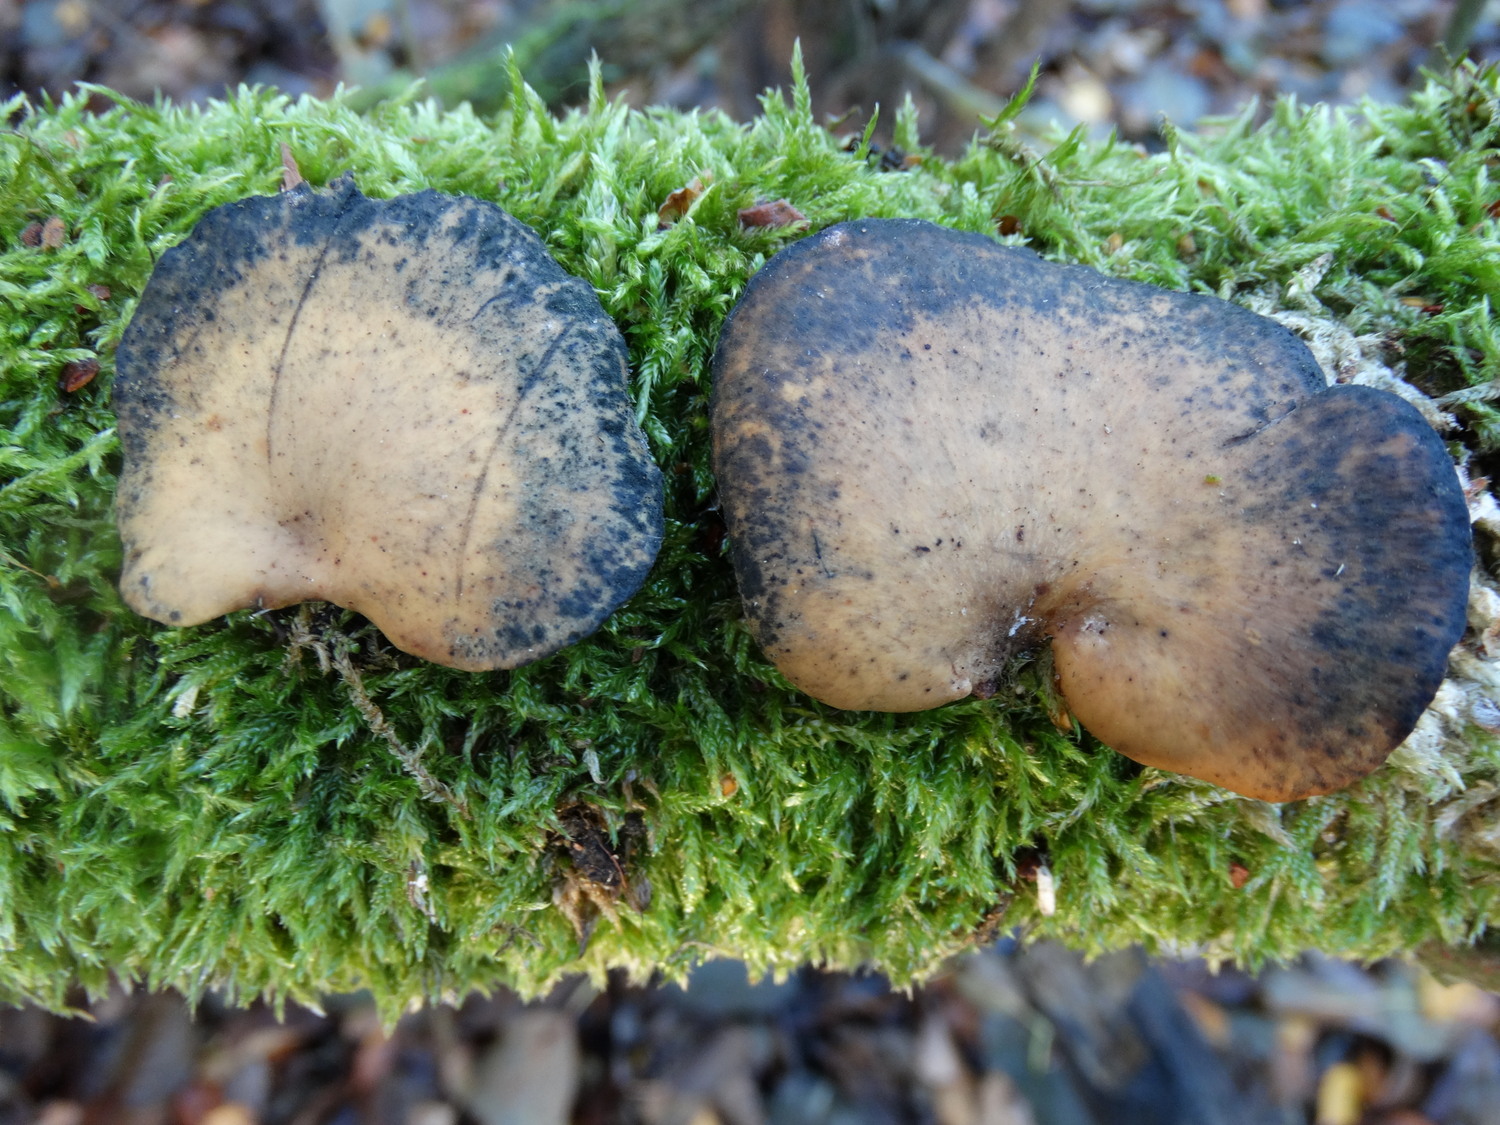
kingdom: Fungi
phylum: Basidiomycota
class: Agaricomycetes
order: Polyporales
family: Polyporaceae
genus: Cerioporus
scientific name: Cerioporus varius
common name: foranderlig stilkporesvamp
